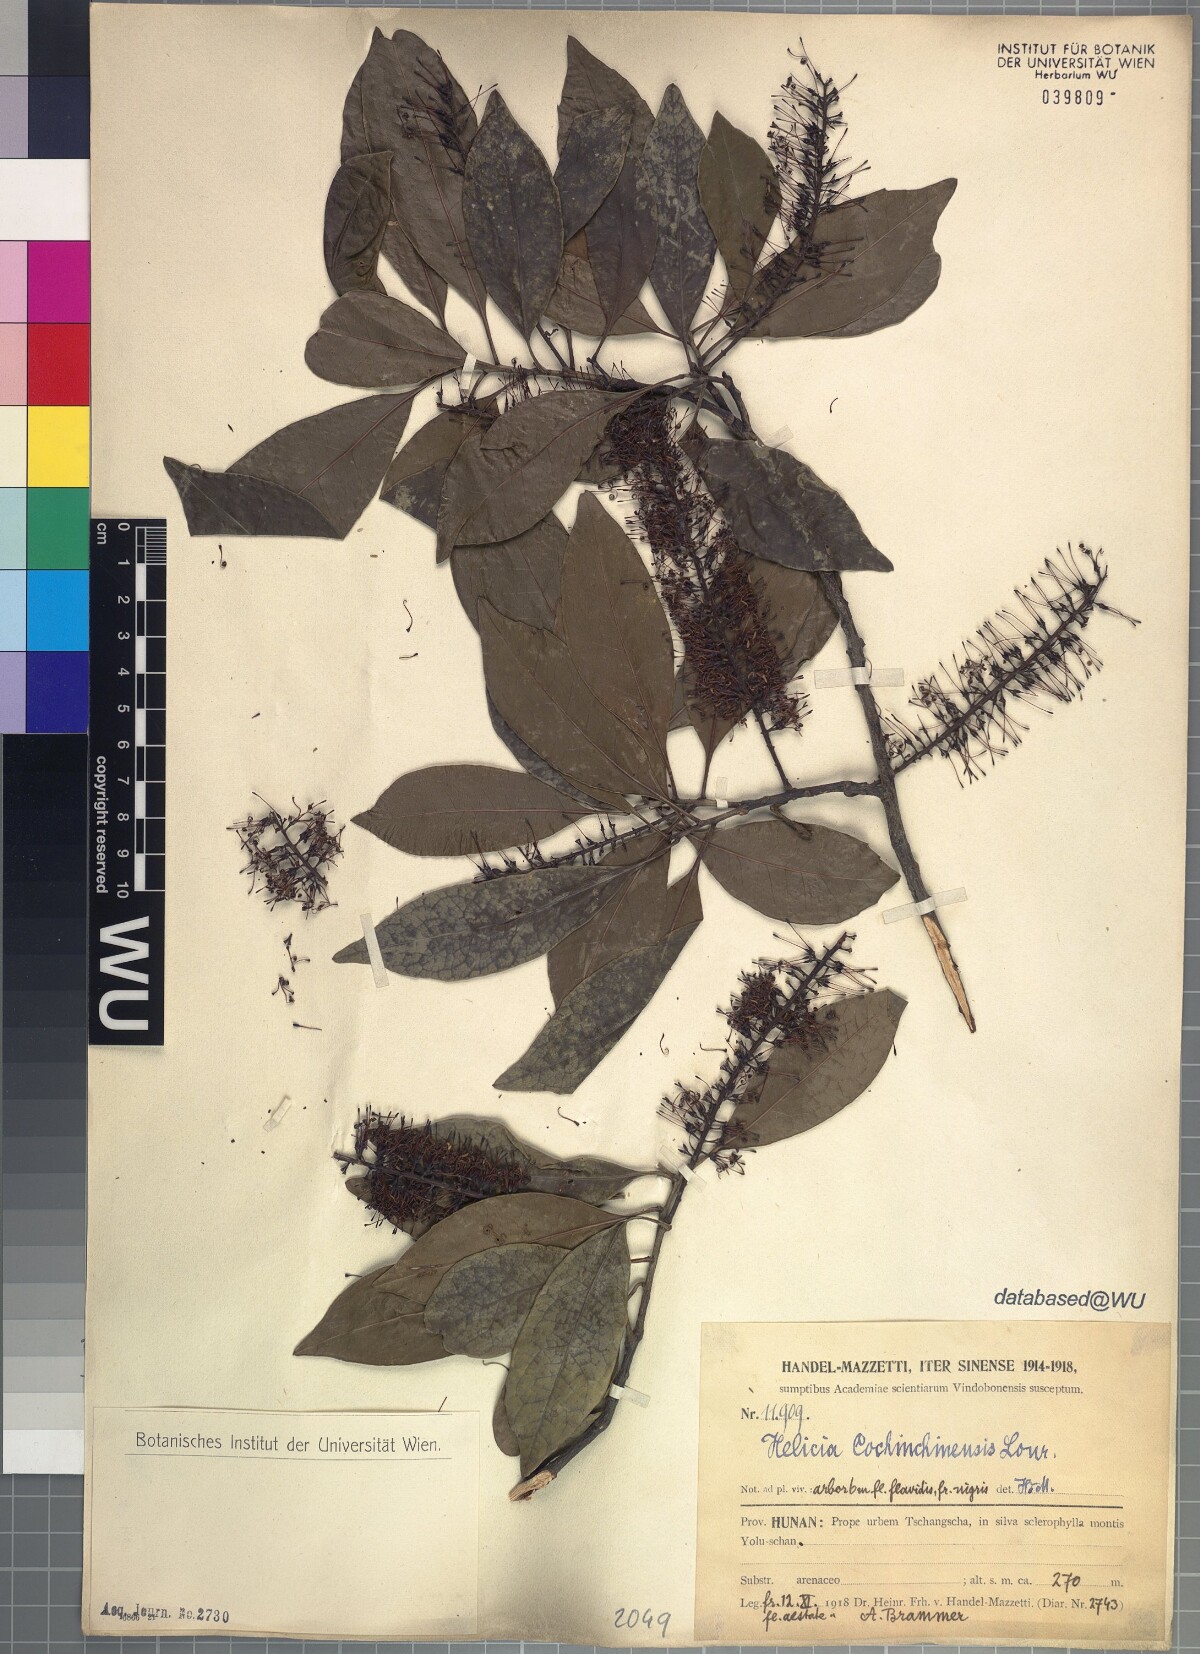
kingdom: Plantae
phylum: Tracheophyta
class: Magnoliopsida
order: Proteales
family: Proteaceae
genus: Helicia
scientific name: Helicia cochinchinensis
